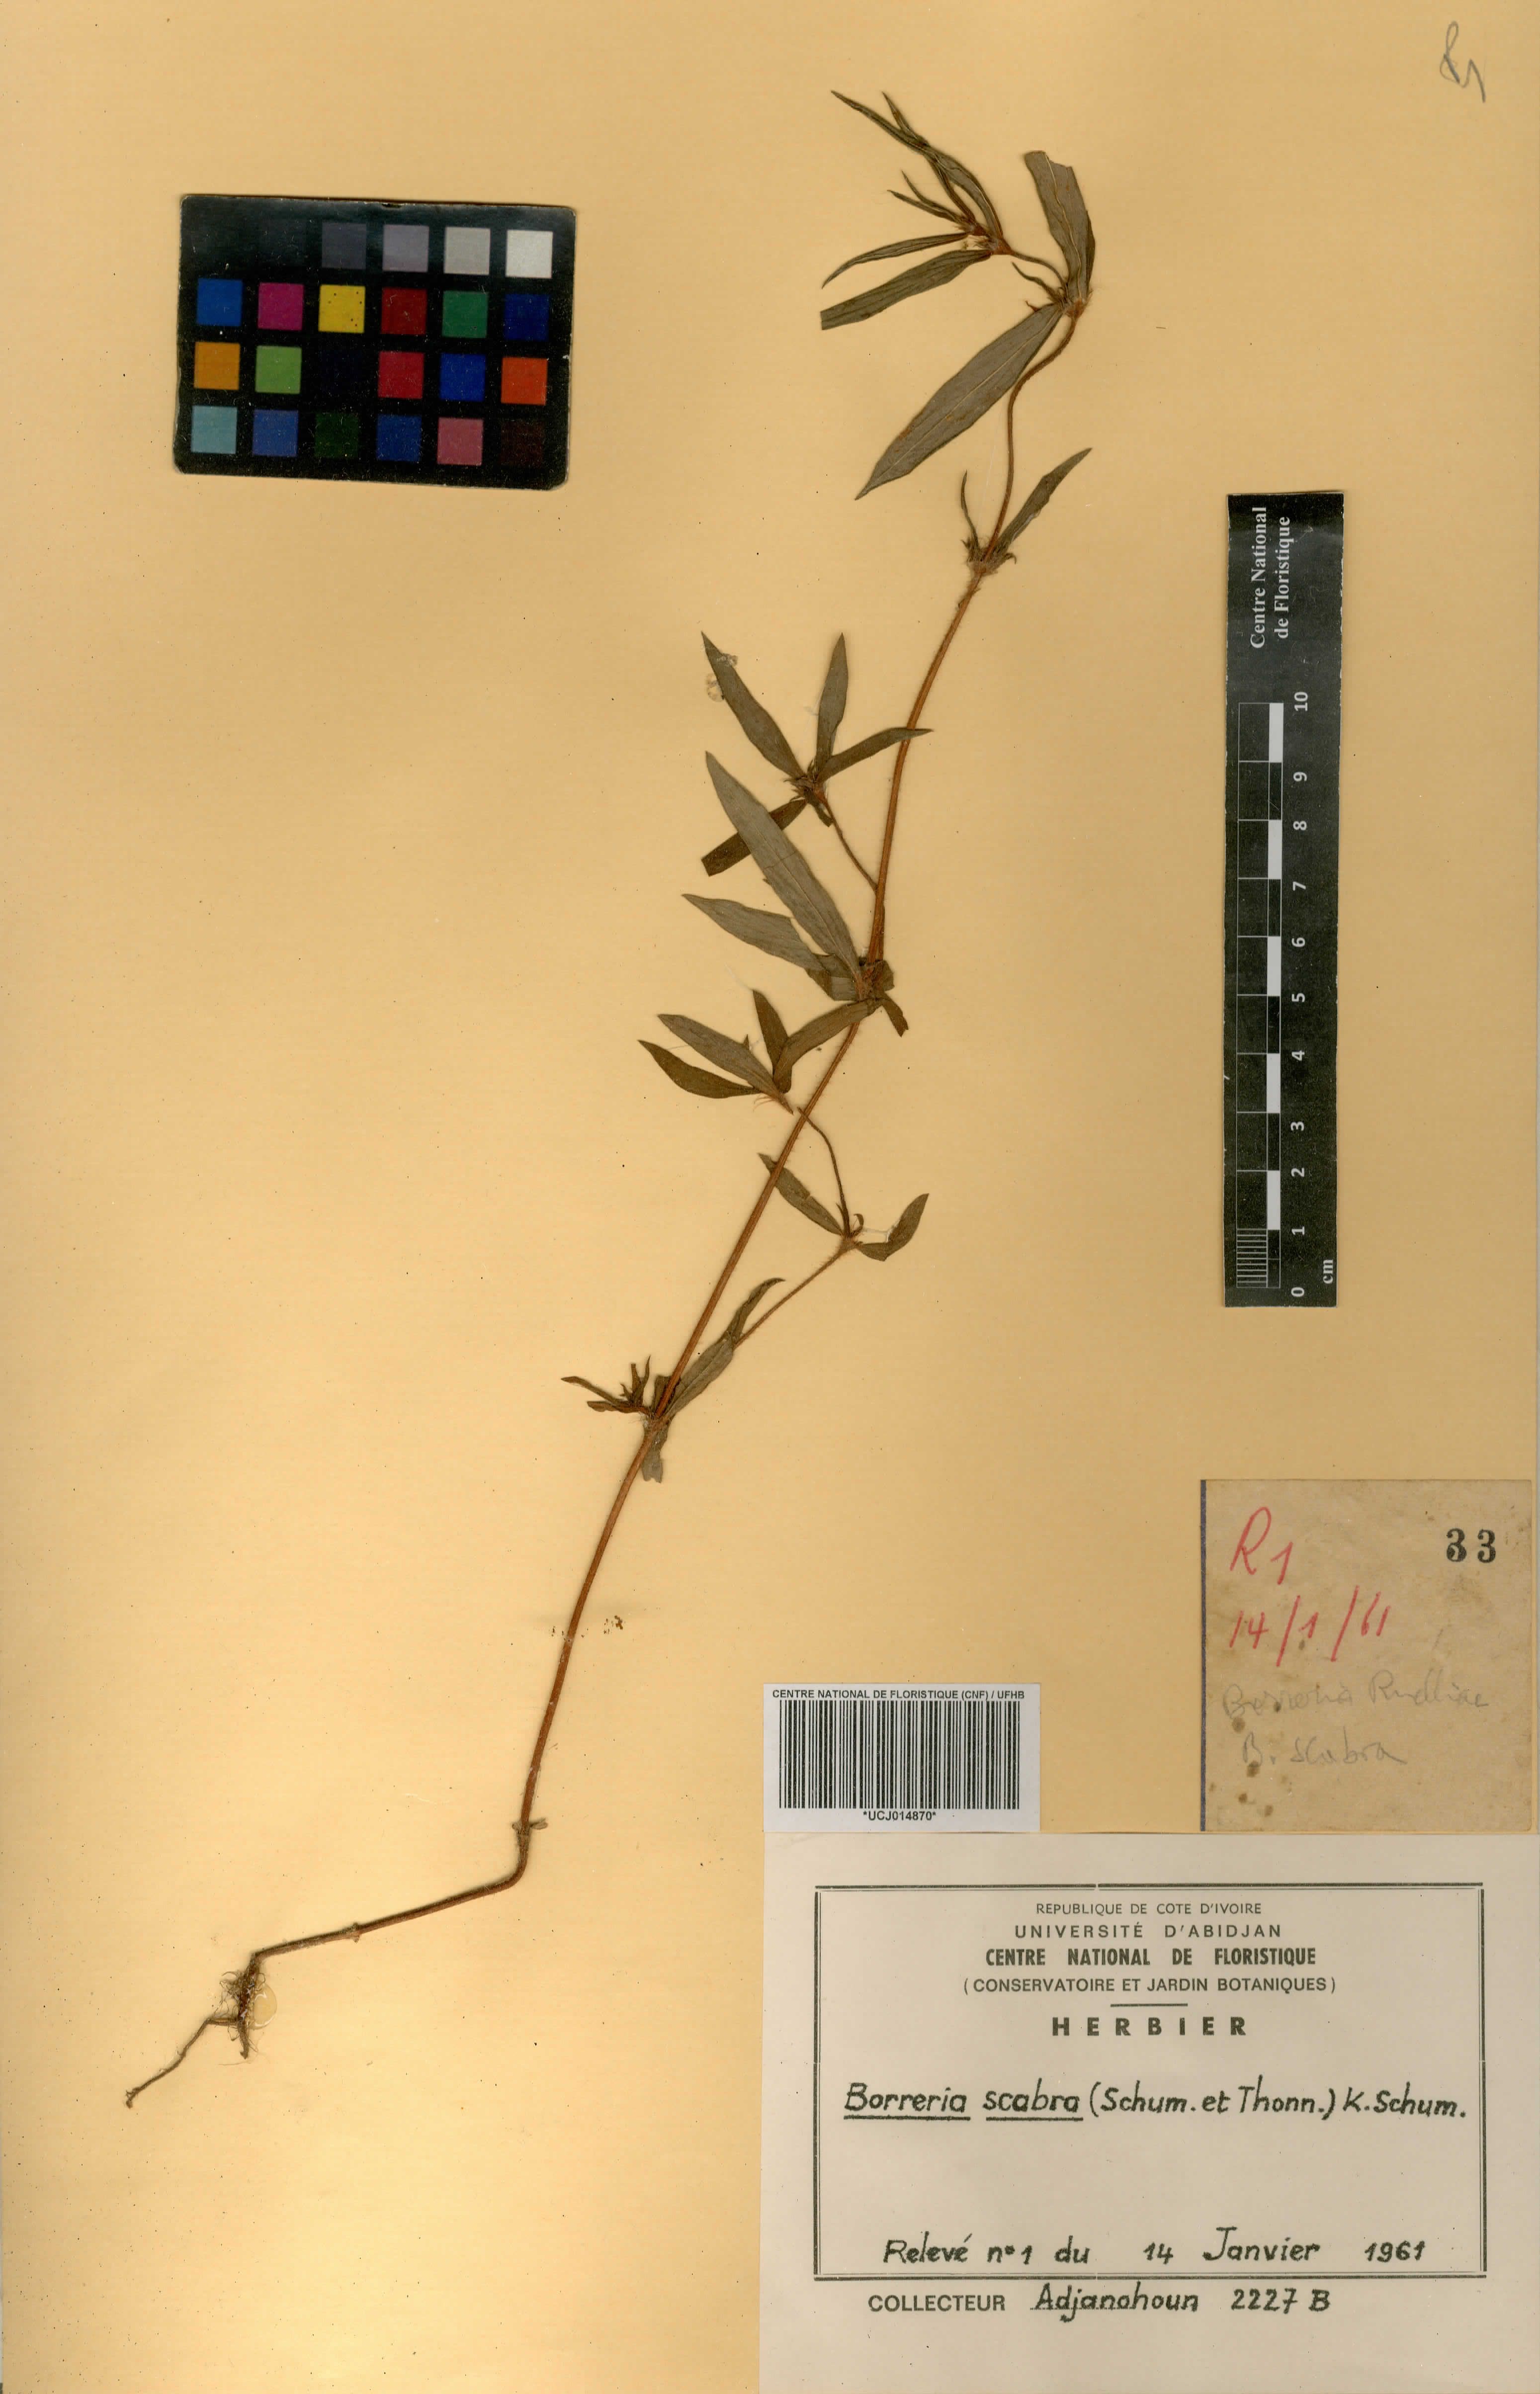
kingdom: Plantae
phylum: Tracheophyta
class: Magnoliopsida
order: Gentianales
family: Rubiaceae
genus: Spermacoce
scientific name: Spermacoce ruelliae
